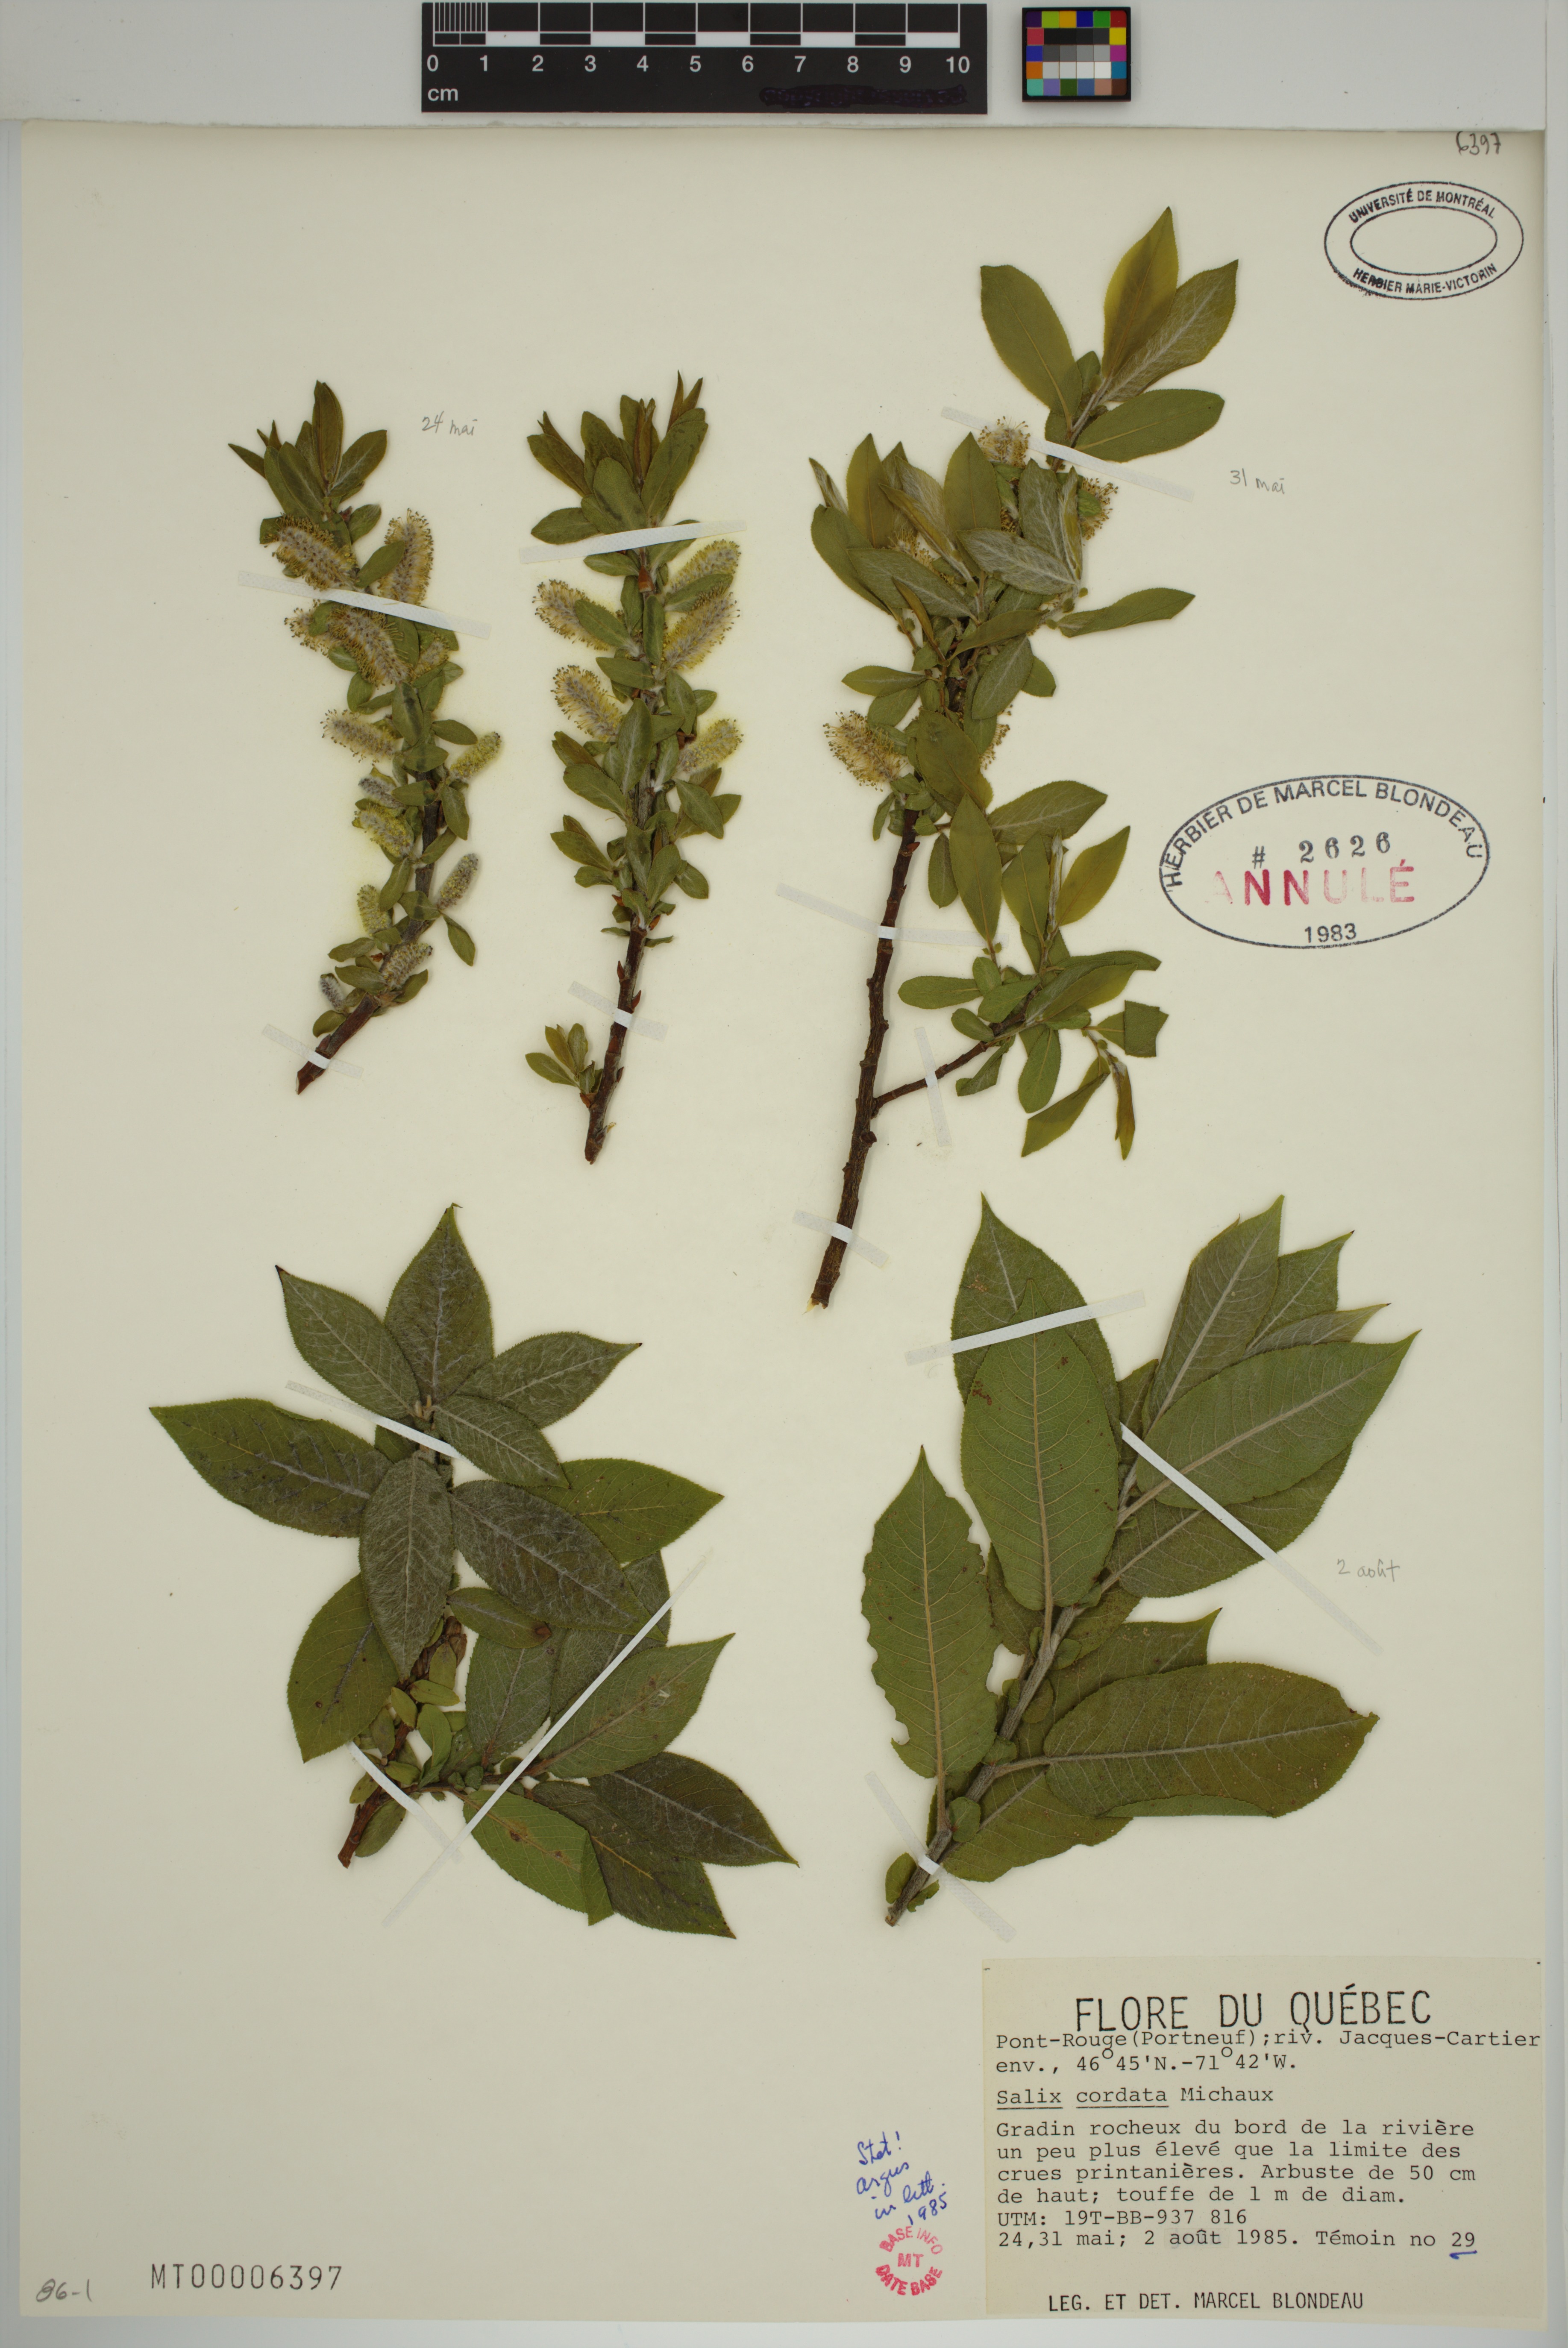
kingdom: Plantae
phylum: Tracheophyta
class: Magnoliopsida
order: Malpighiales
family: Salicaceae
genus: Salix
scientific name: Salix cordata
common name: Heart-leaf willow
